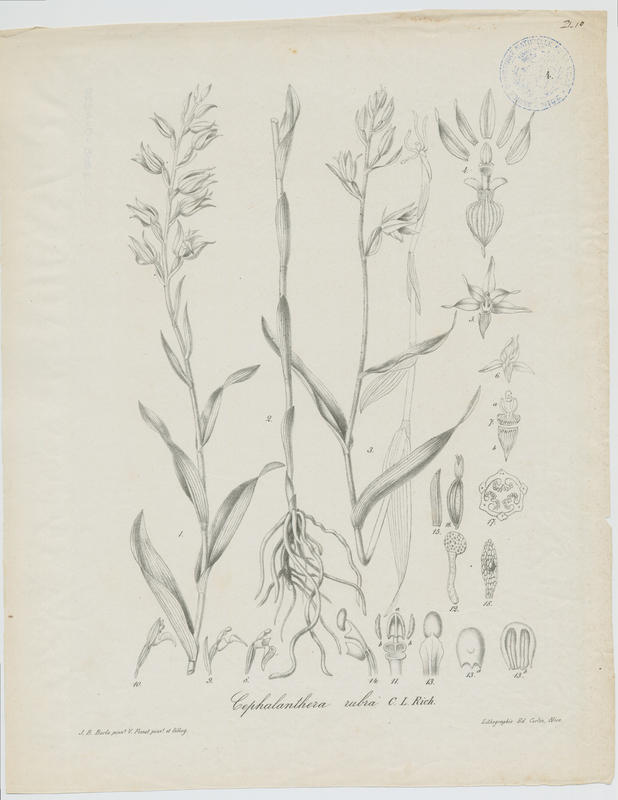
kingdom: Plantae
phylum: Tracheophyta
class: Liliopsida
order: Asparagales
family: Orchidaceae
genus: Cephalanthera
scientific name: Cephalanthera rubra
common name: Red helleborine
